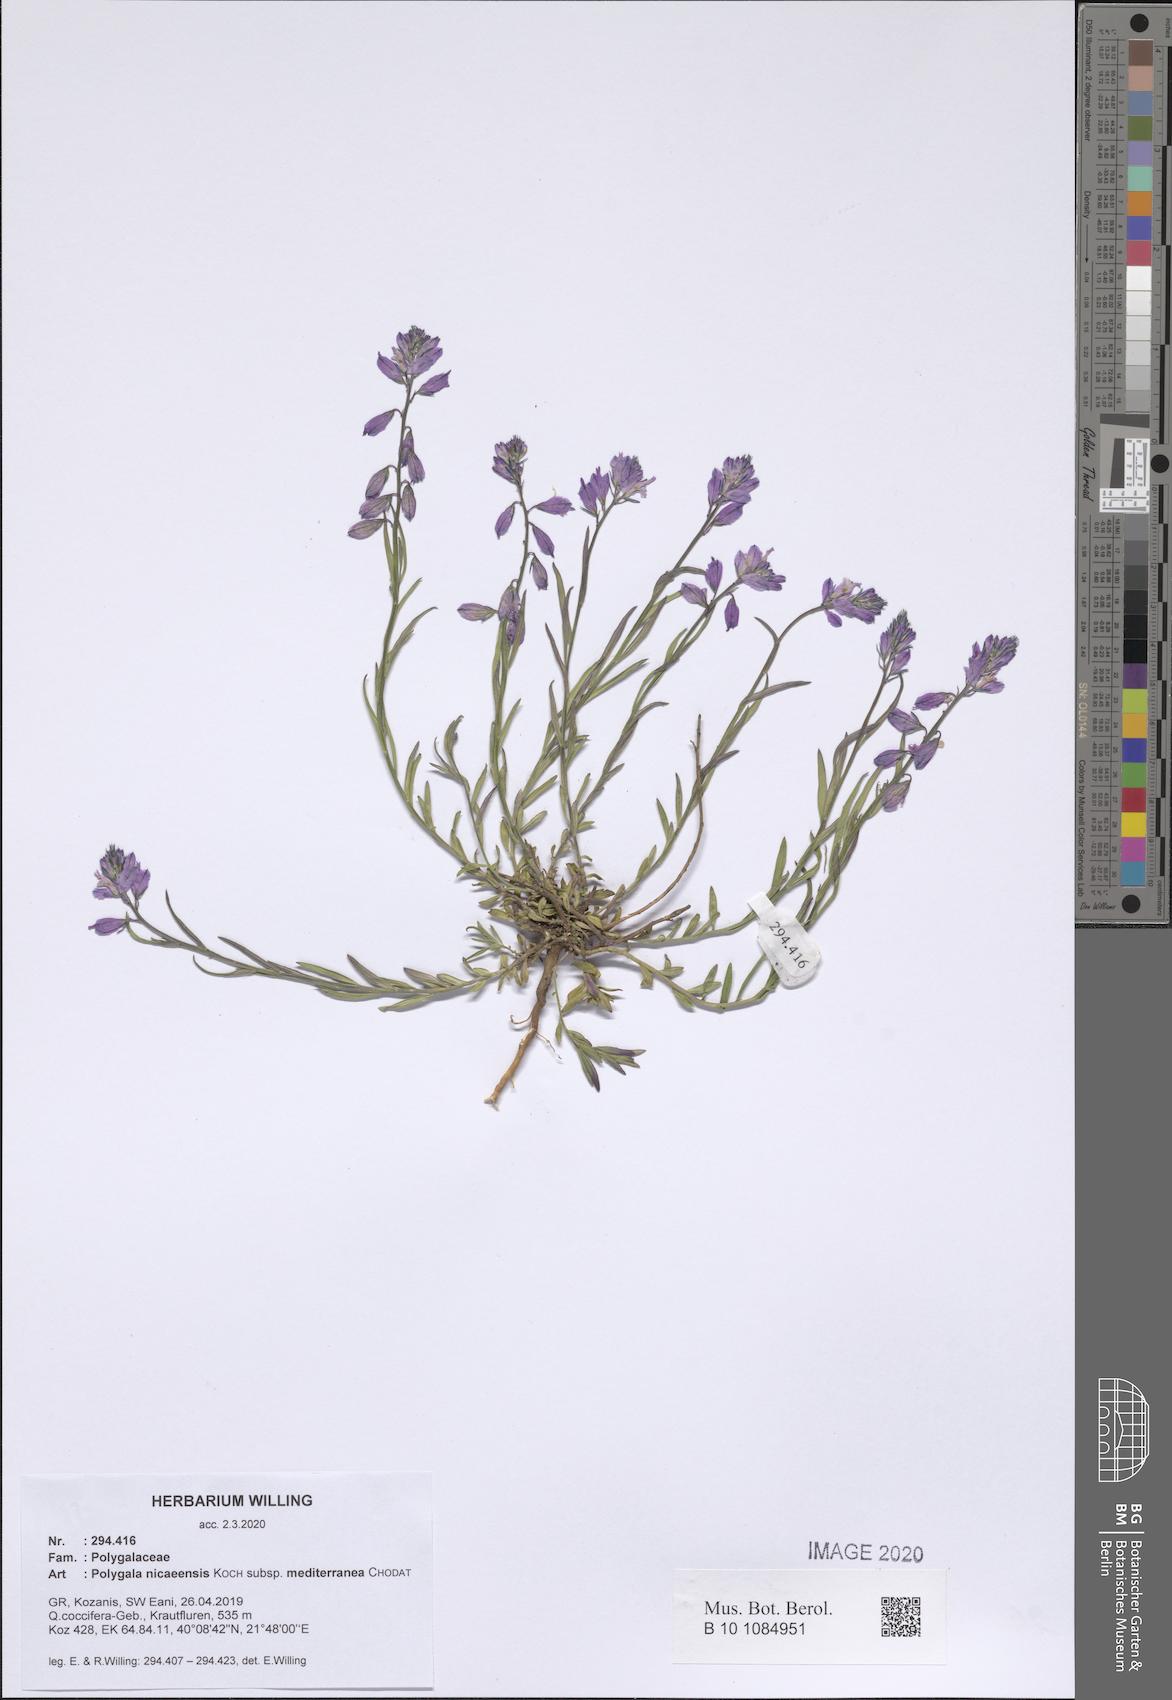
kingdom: Plantae
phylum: Tracheophyta
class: Magnoliopsida
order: Fabales
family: Polygalaceae
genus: Polygala
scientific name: Polygala nicaeensis
